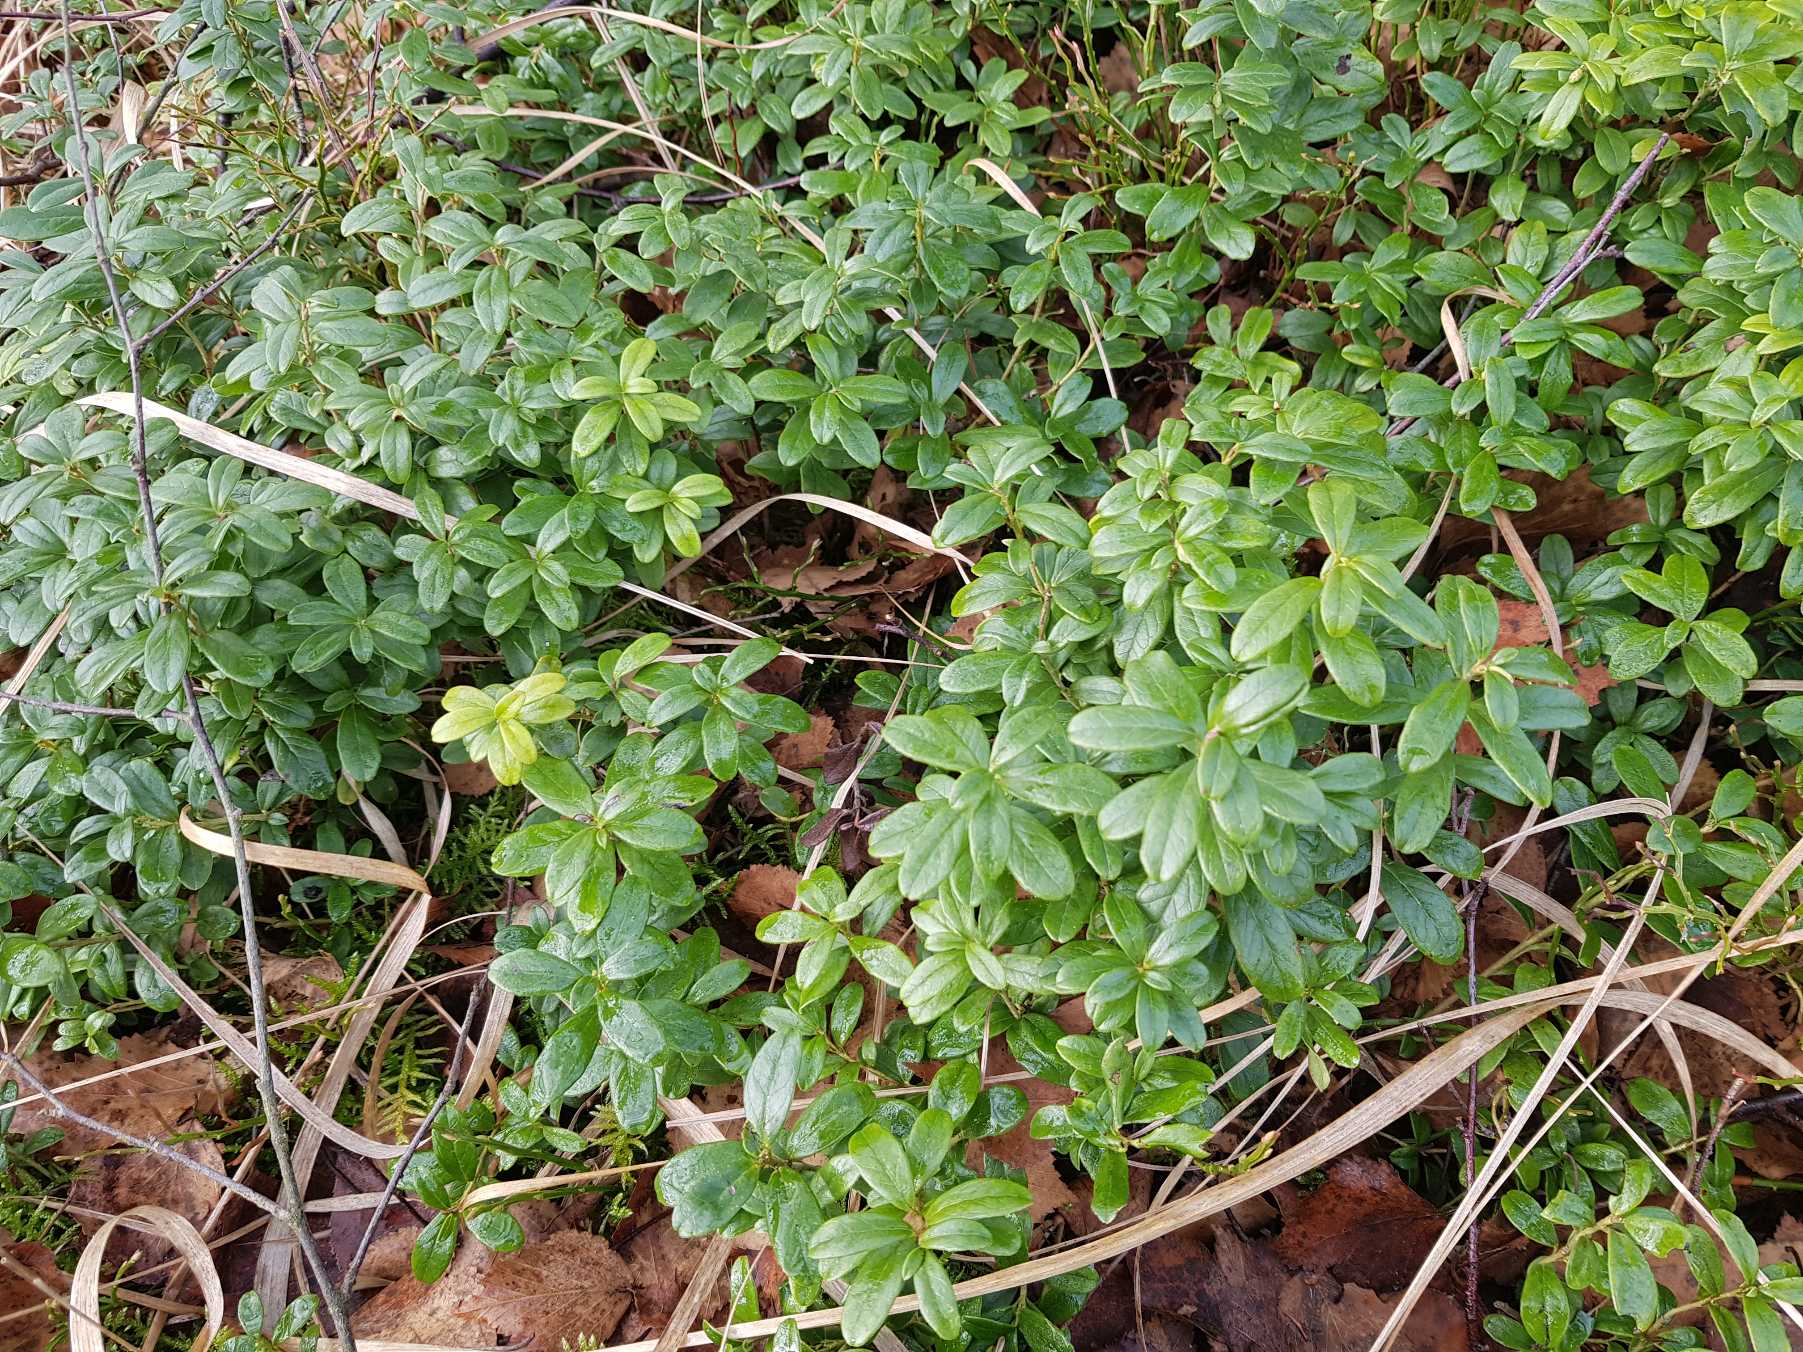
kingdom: Plantae
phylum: Tracheophyta
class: Magnoliopsida
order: Ericales
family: Ericaceae
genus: Vaccinium
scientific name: Vaccinium vitis-idaea
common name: Tyttebær
